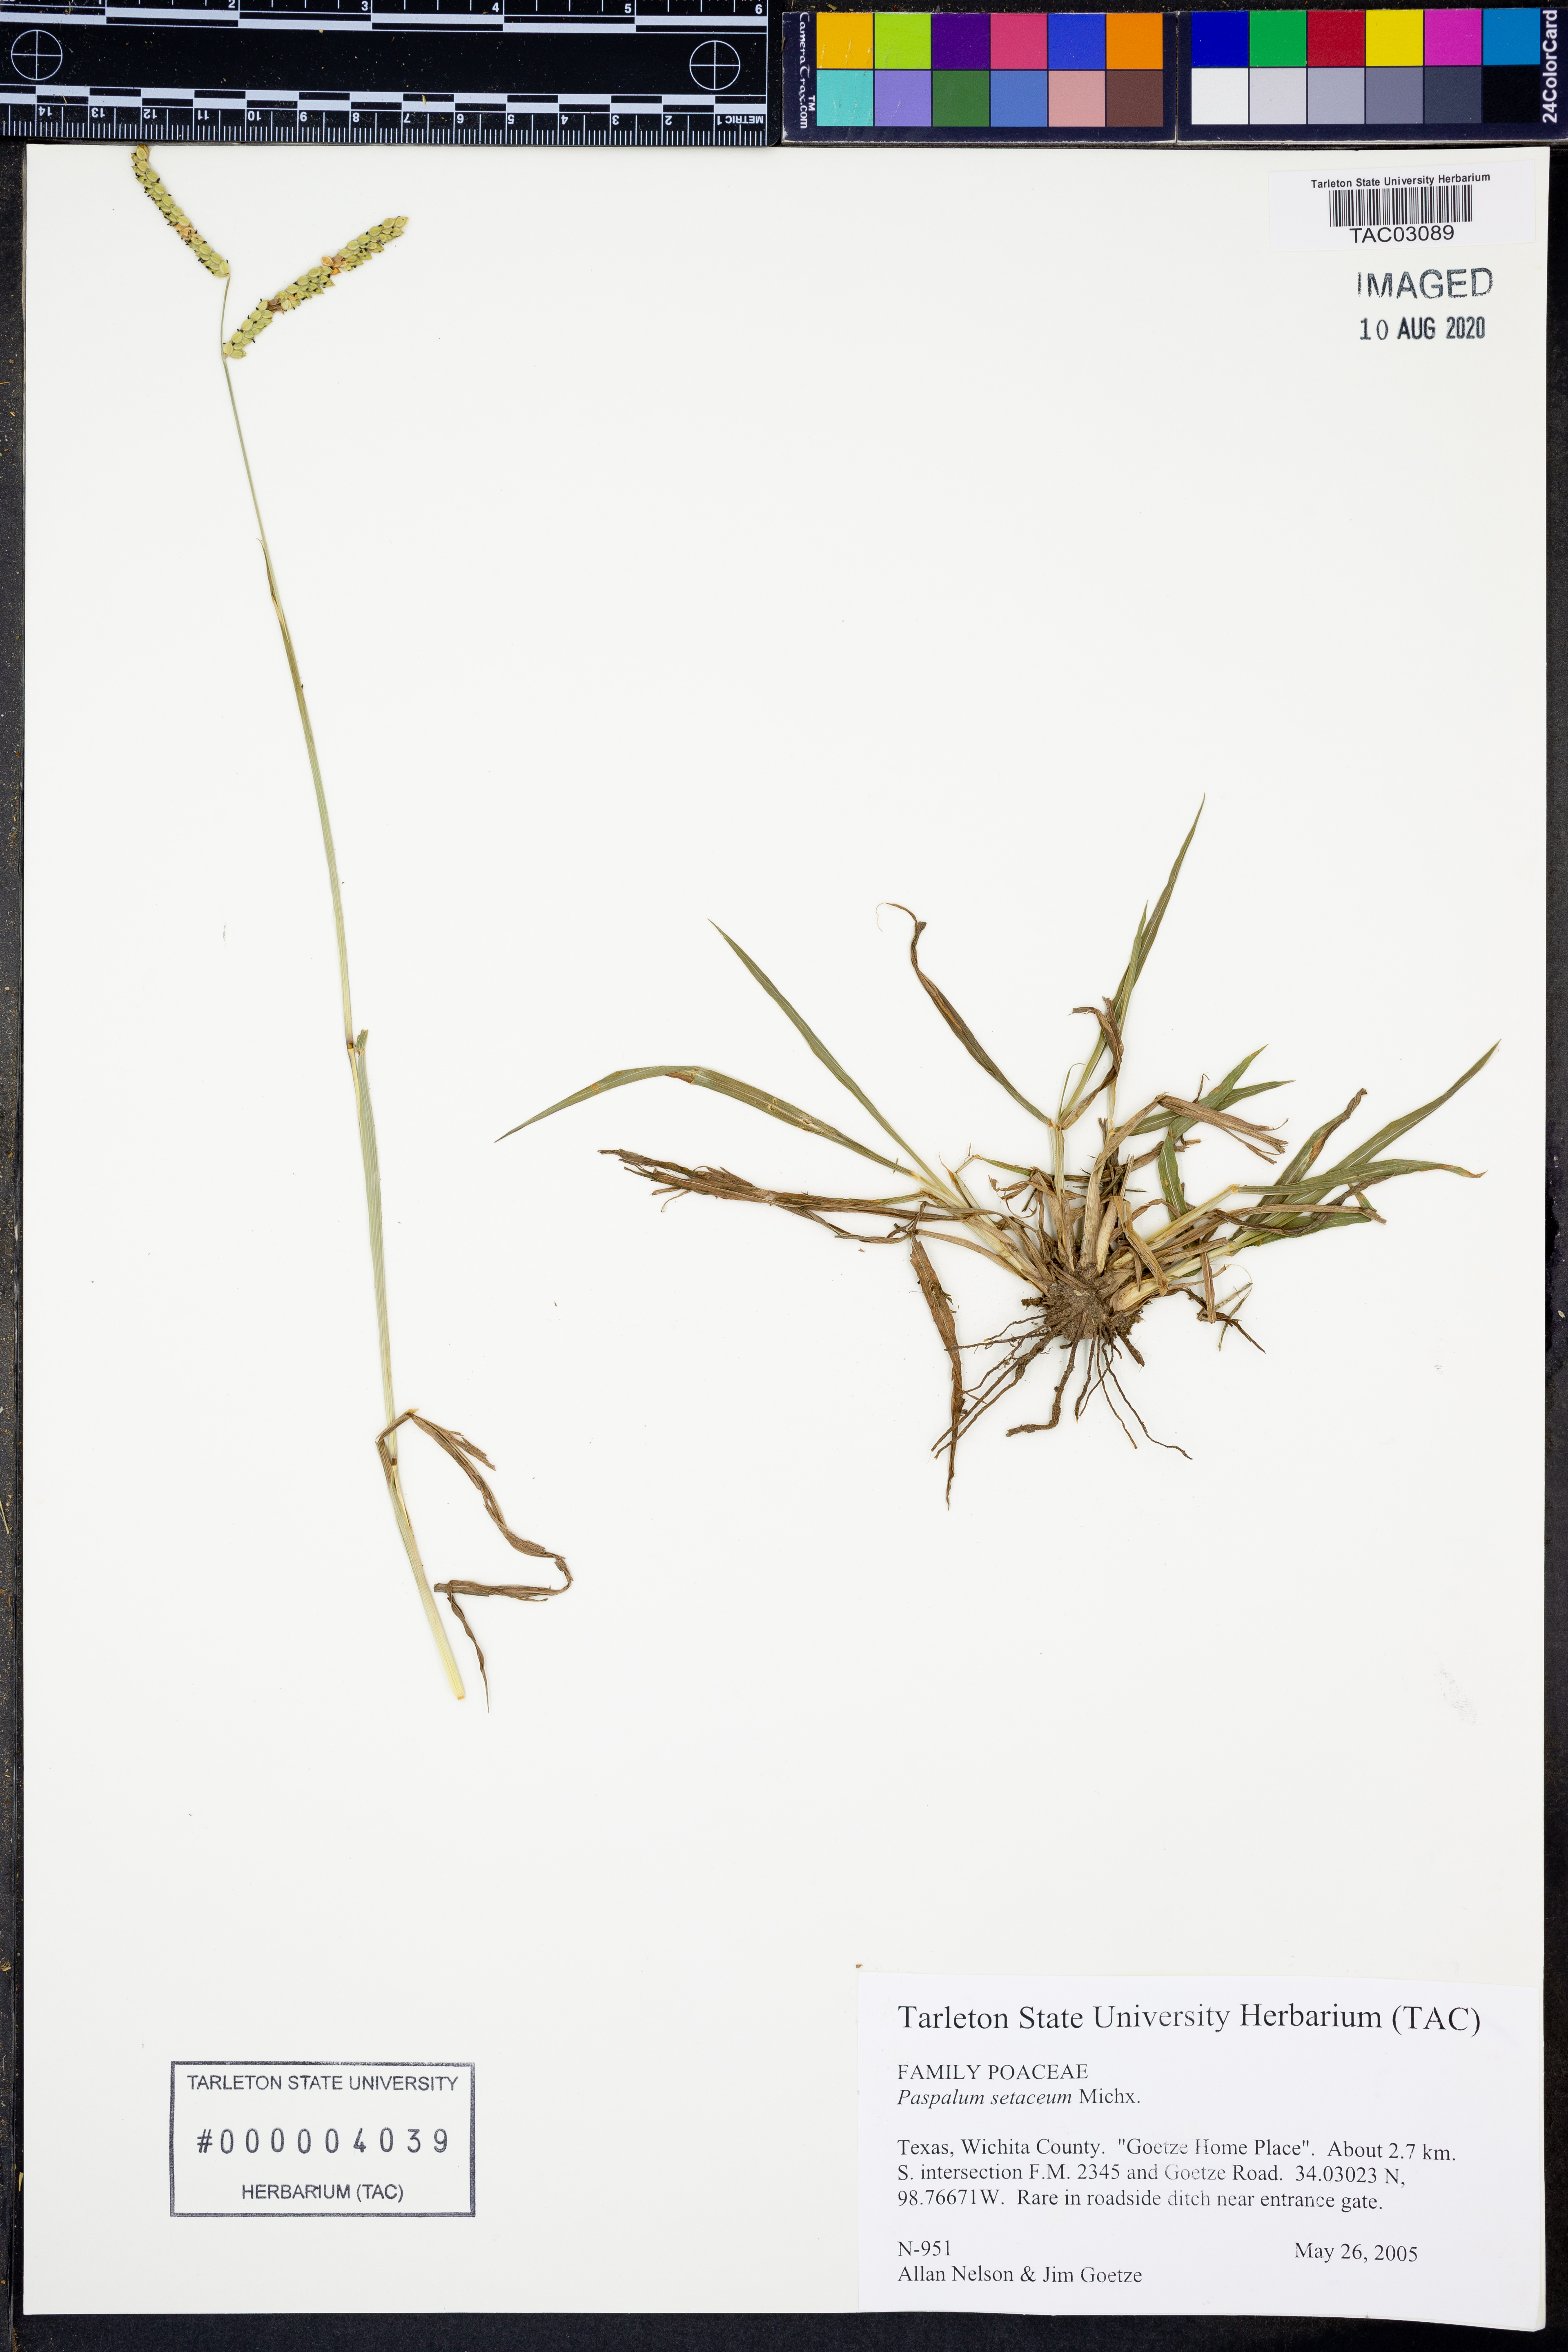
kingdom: Plantae
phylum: Tracheophyta
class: Liliopsida
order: Poales
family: Poaceae
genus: Paspalum
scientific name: Paspalum setaceum
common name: Slender paspalum
